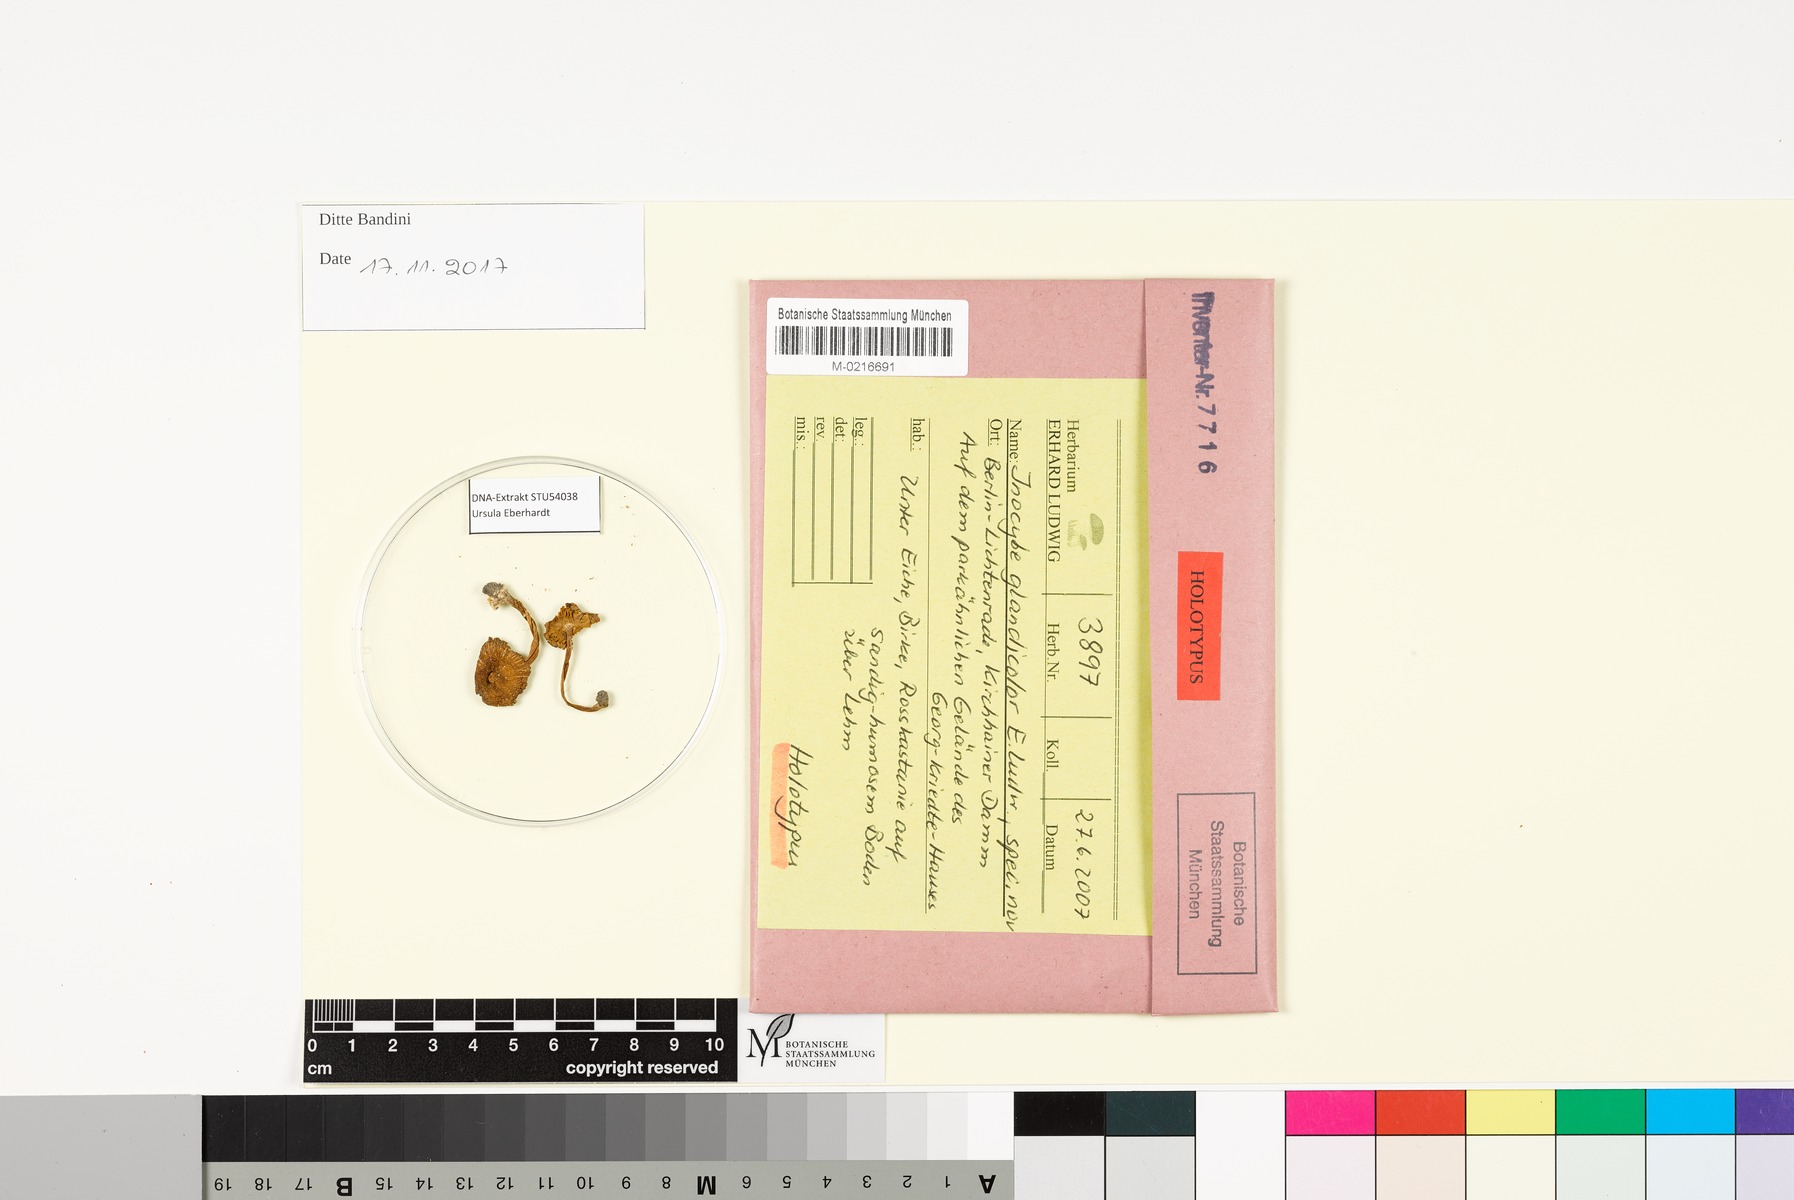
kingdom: Fungi
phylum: Basidiomycota
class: Agaricomycetes
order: Agaricales
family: Inocybaceae
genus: Inocybe
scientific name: Inocybe glandicolor
